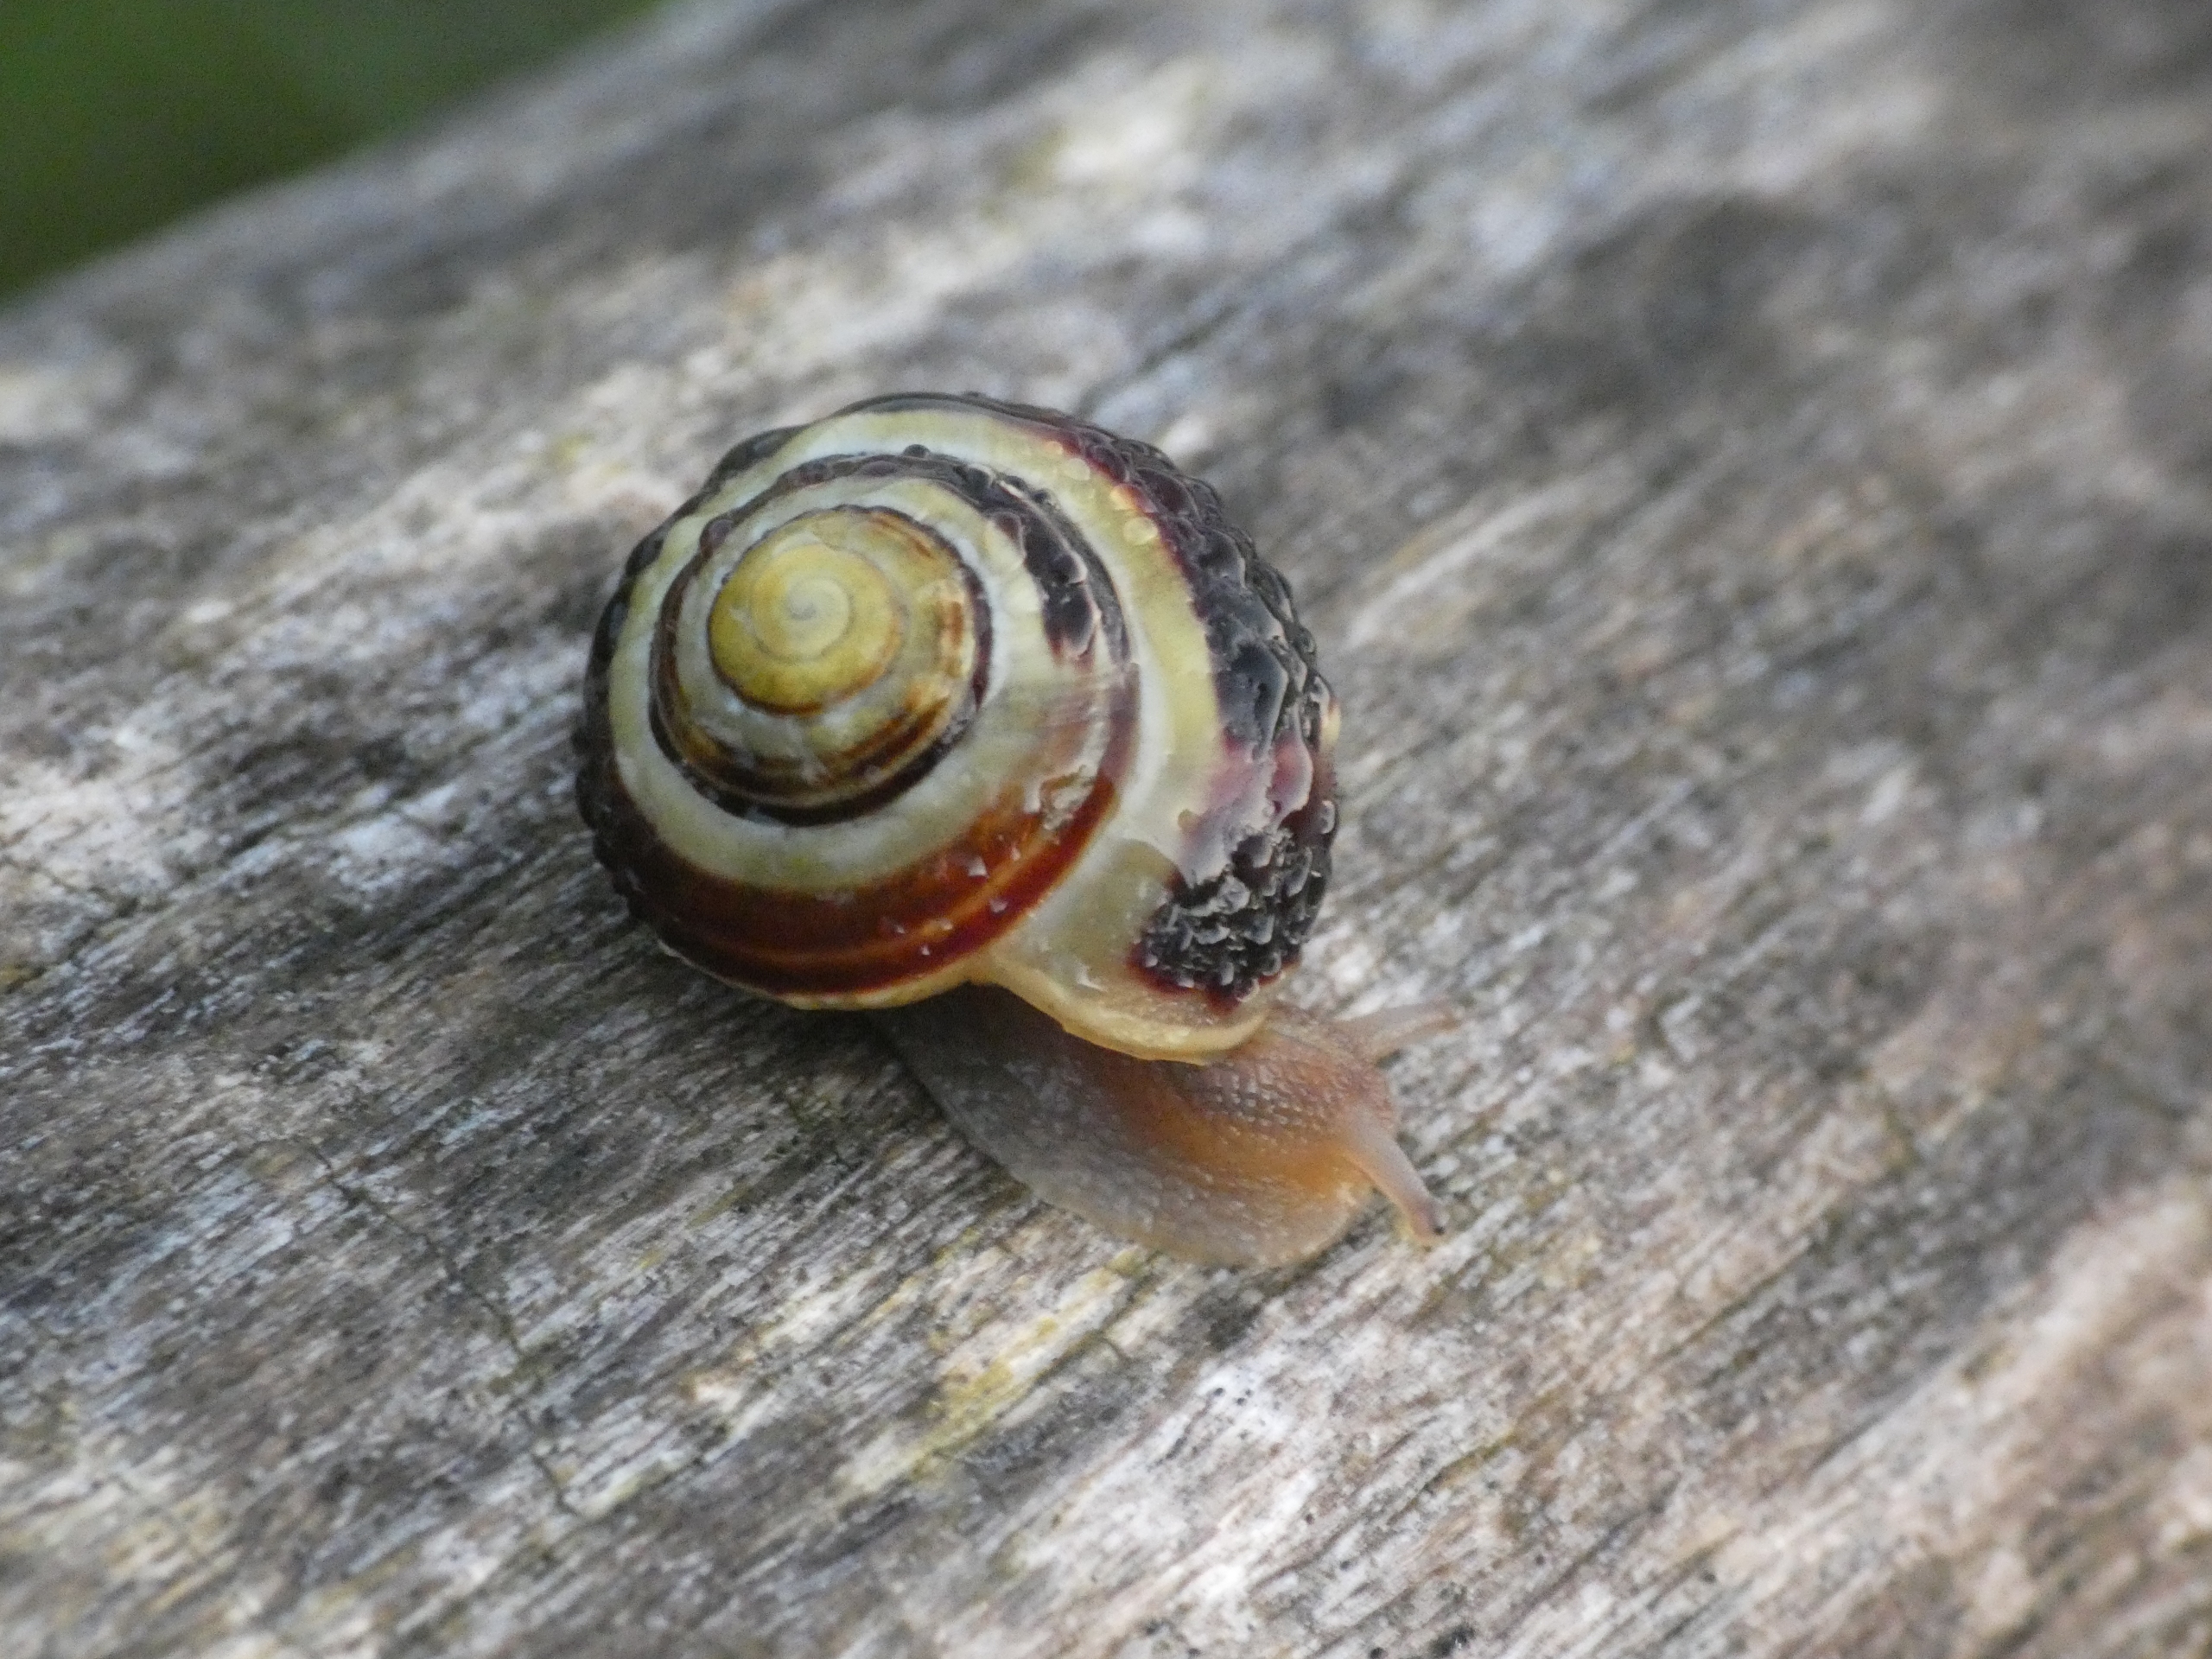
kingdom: Animalia
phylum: Mollusca
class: Gastropoda
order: Stylommatophora
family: Helicidae
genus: Cepaea
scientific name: Cepaea hortensis
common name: Havesnegl
